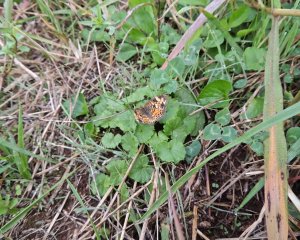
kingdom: Animalia
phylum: Arthropoda
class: Insecta
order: Lepidoptera
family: Nymphalidae
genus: Phyciodes
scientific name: Phyciodes tharos
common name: Pearl Crescent
